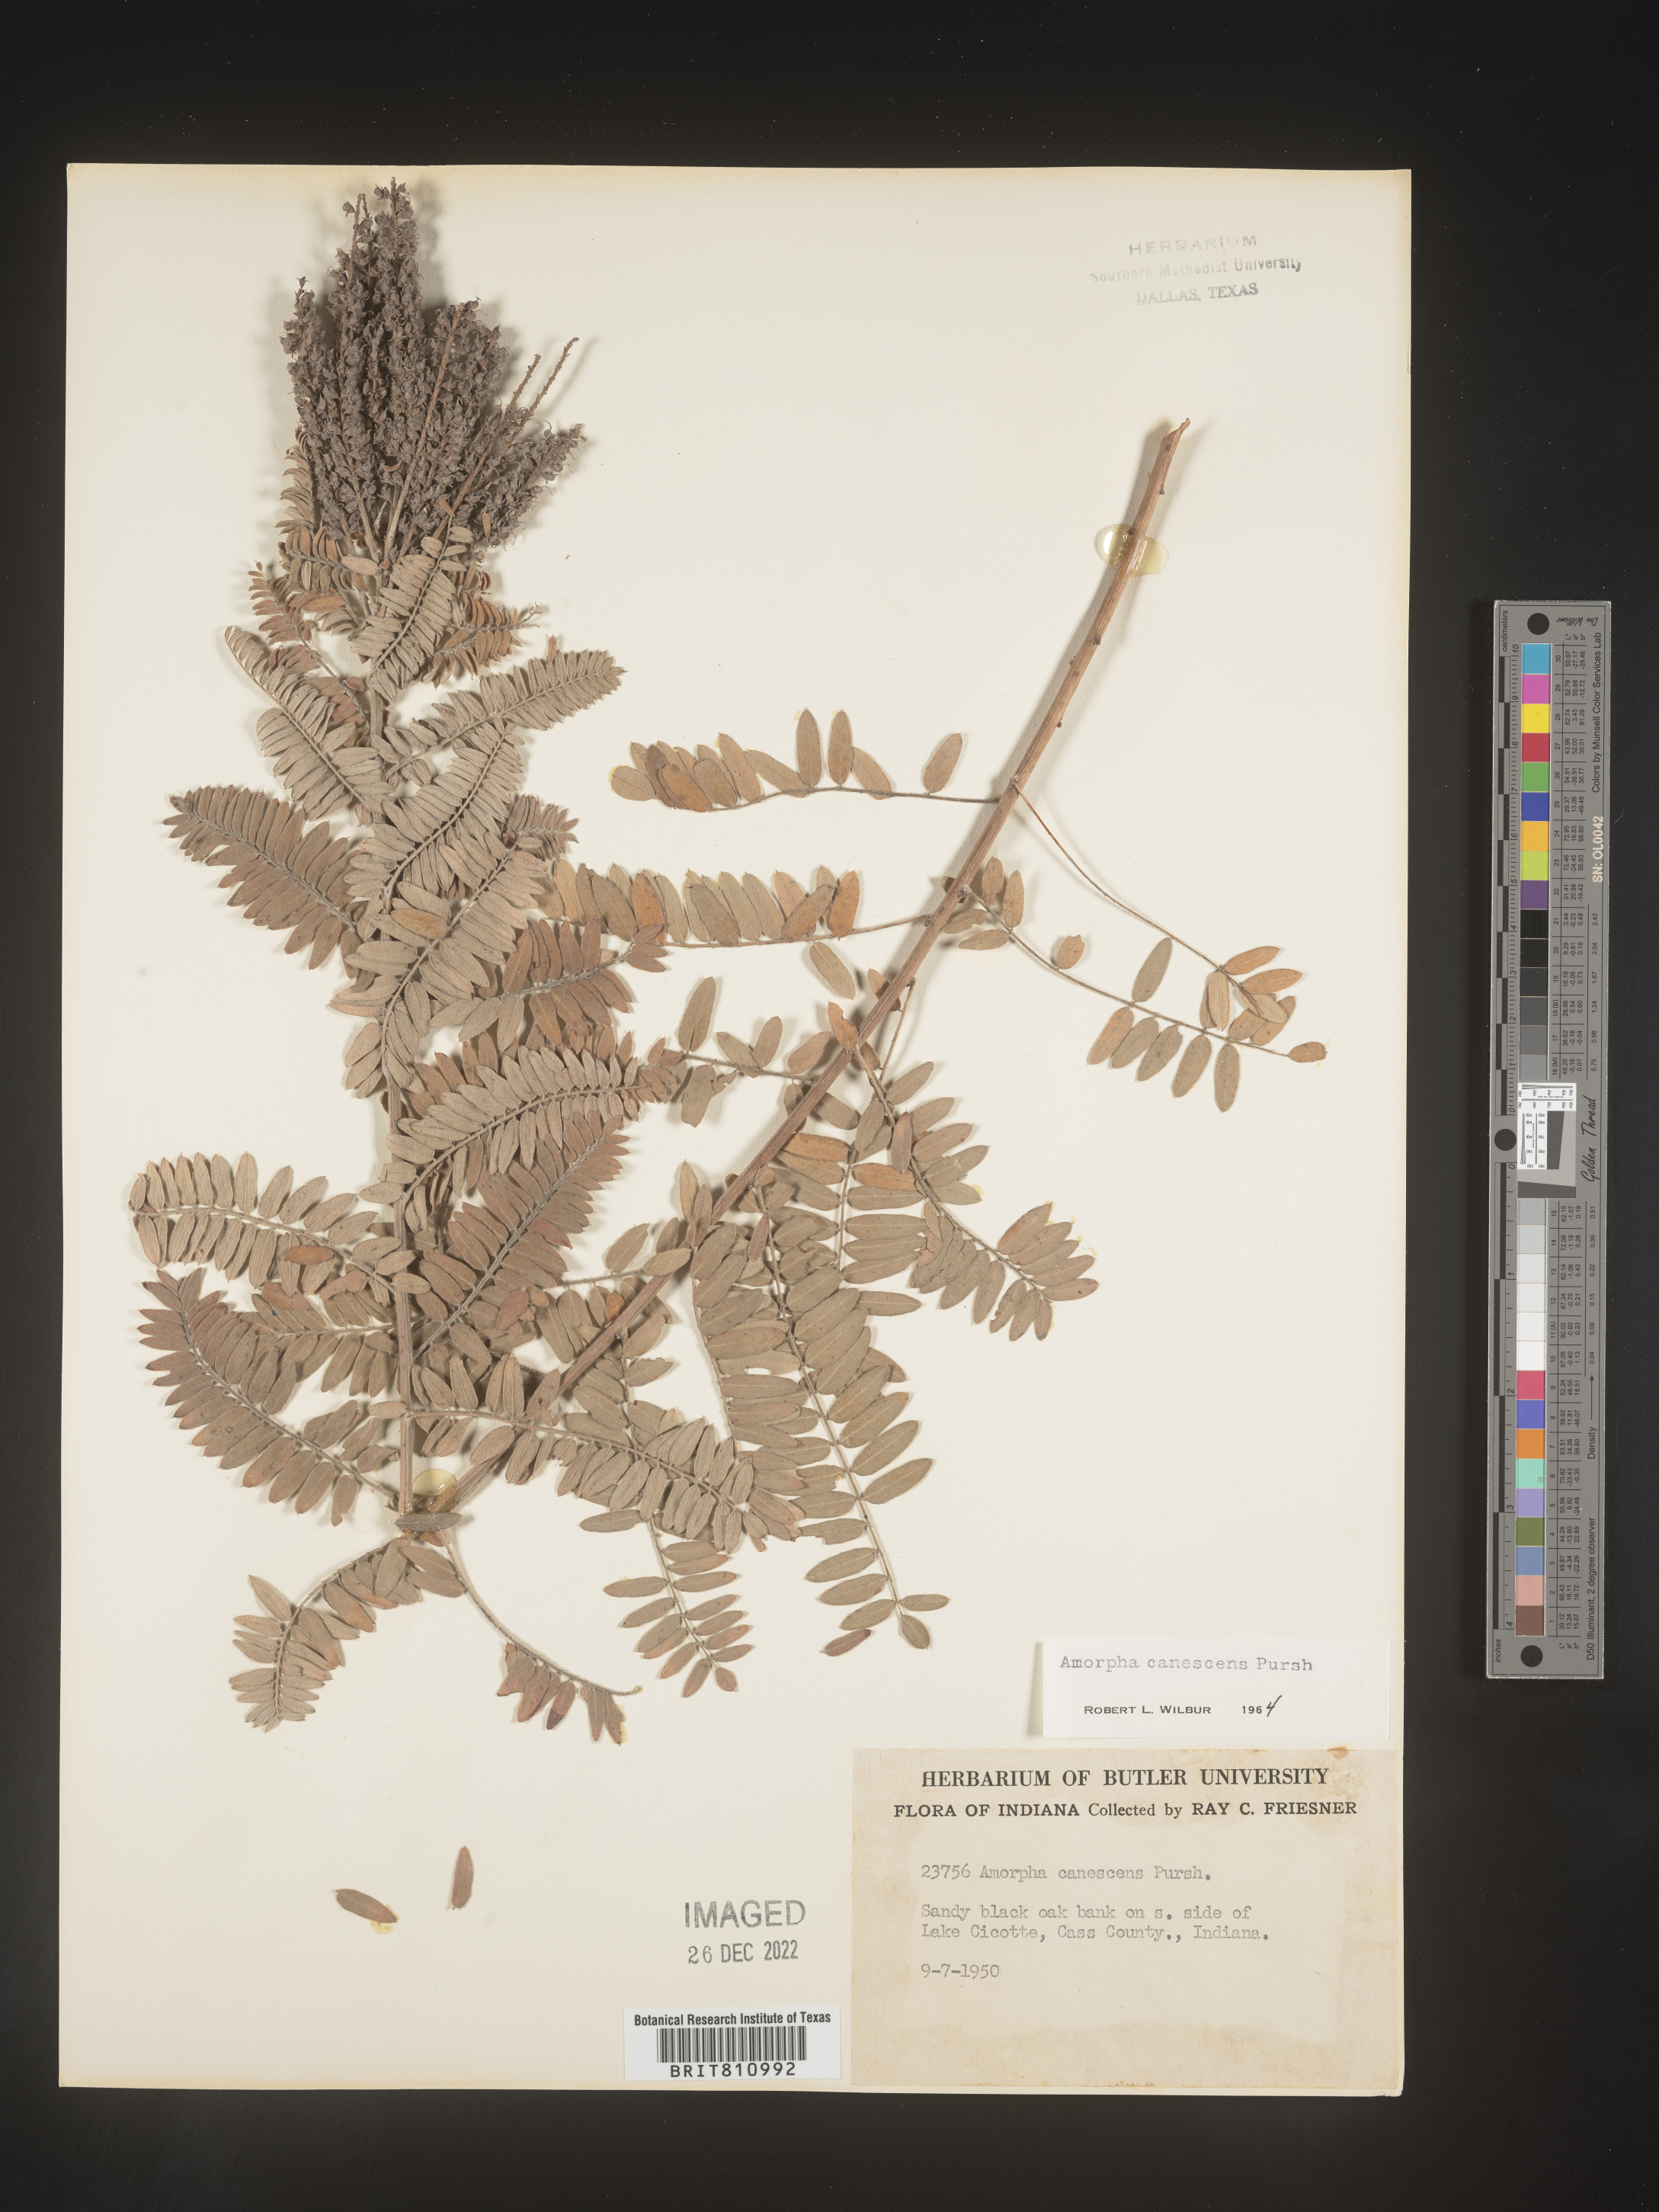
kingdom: Plantae
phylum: Tracheophyta
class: Magnoliopsida
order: Fabales
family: Fabaceae
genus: Amorpha
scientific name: Amorpha canescens
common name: Leadplant
